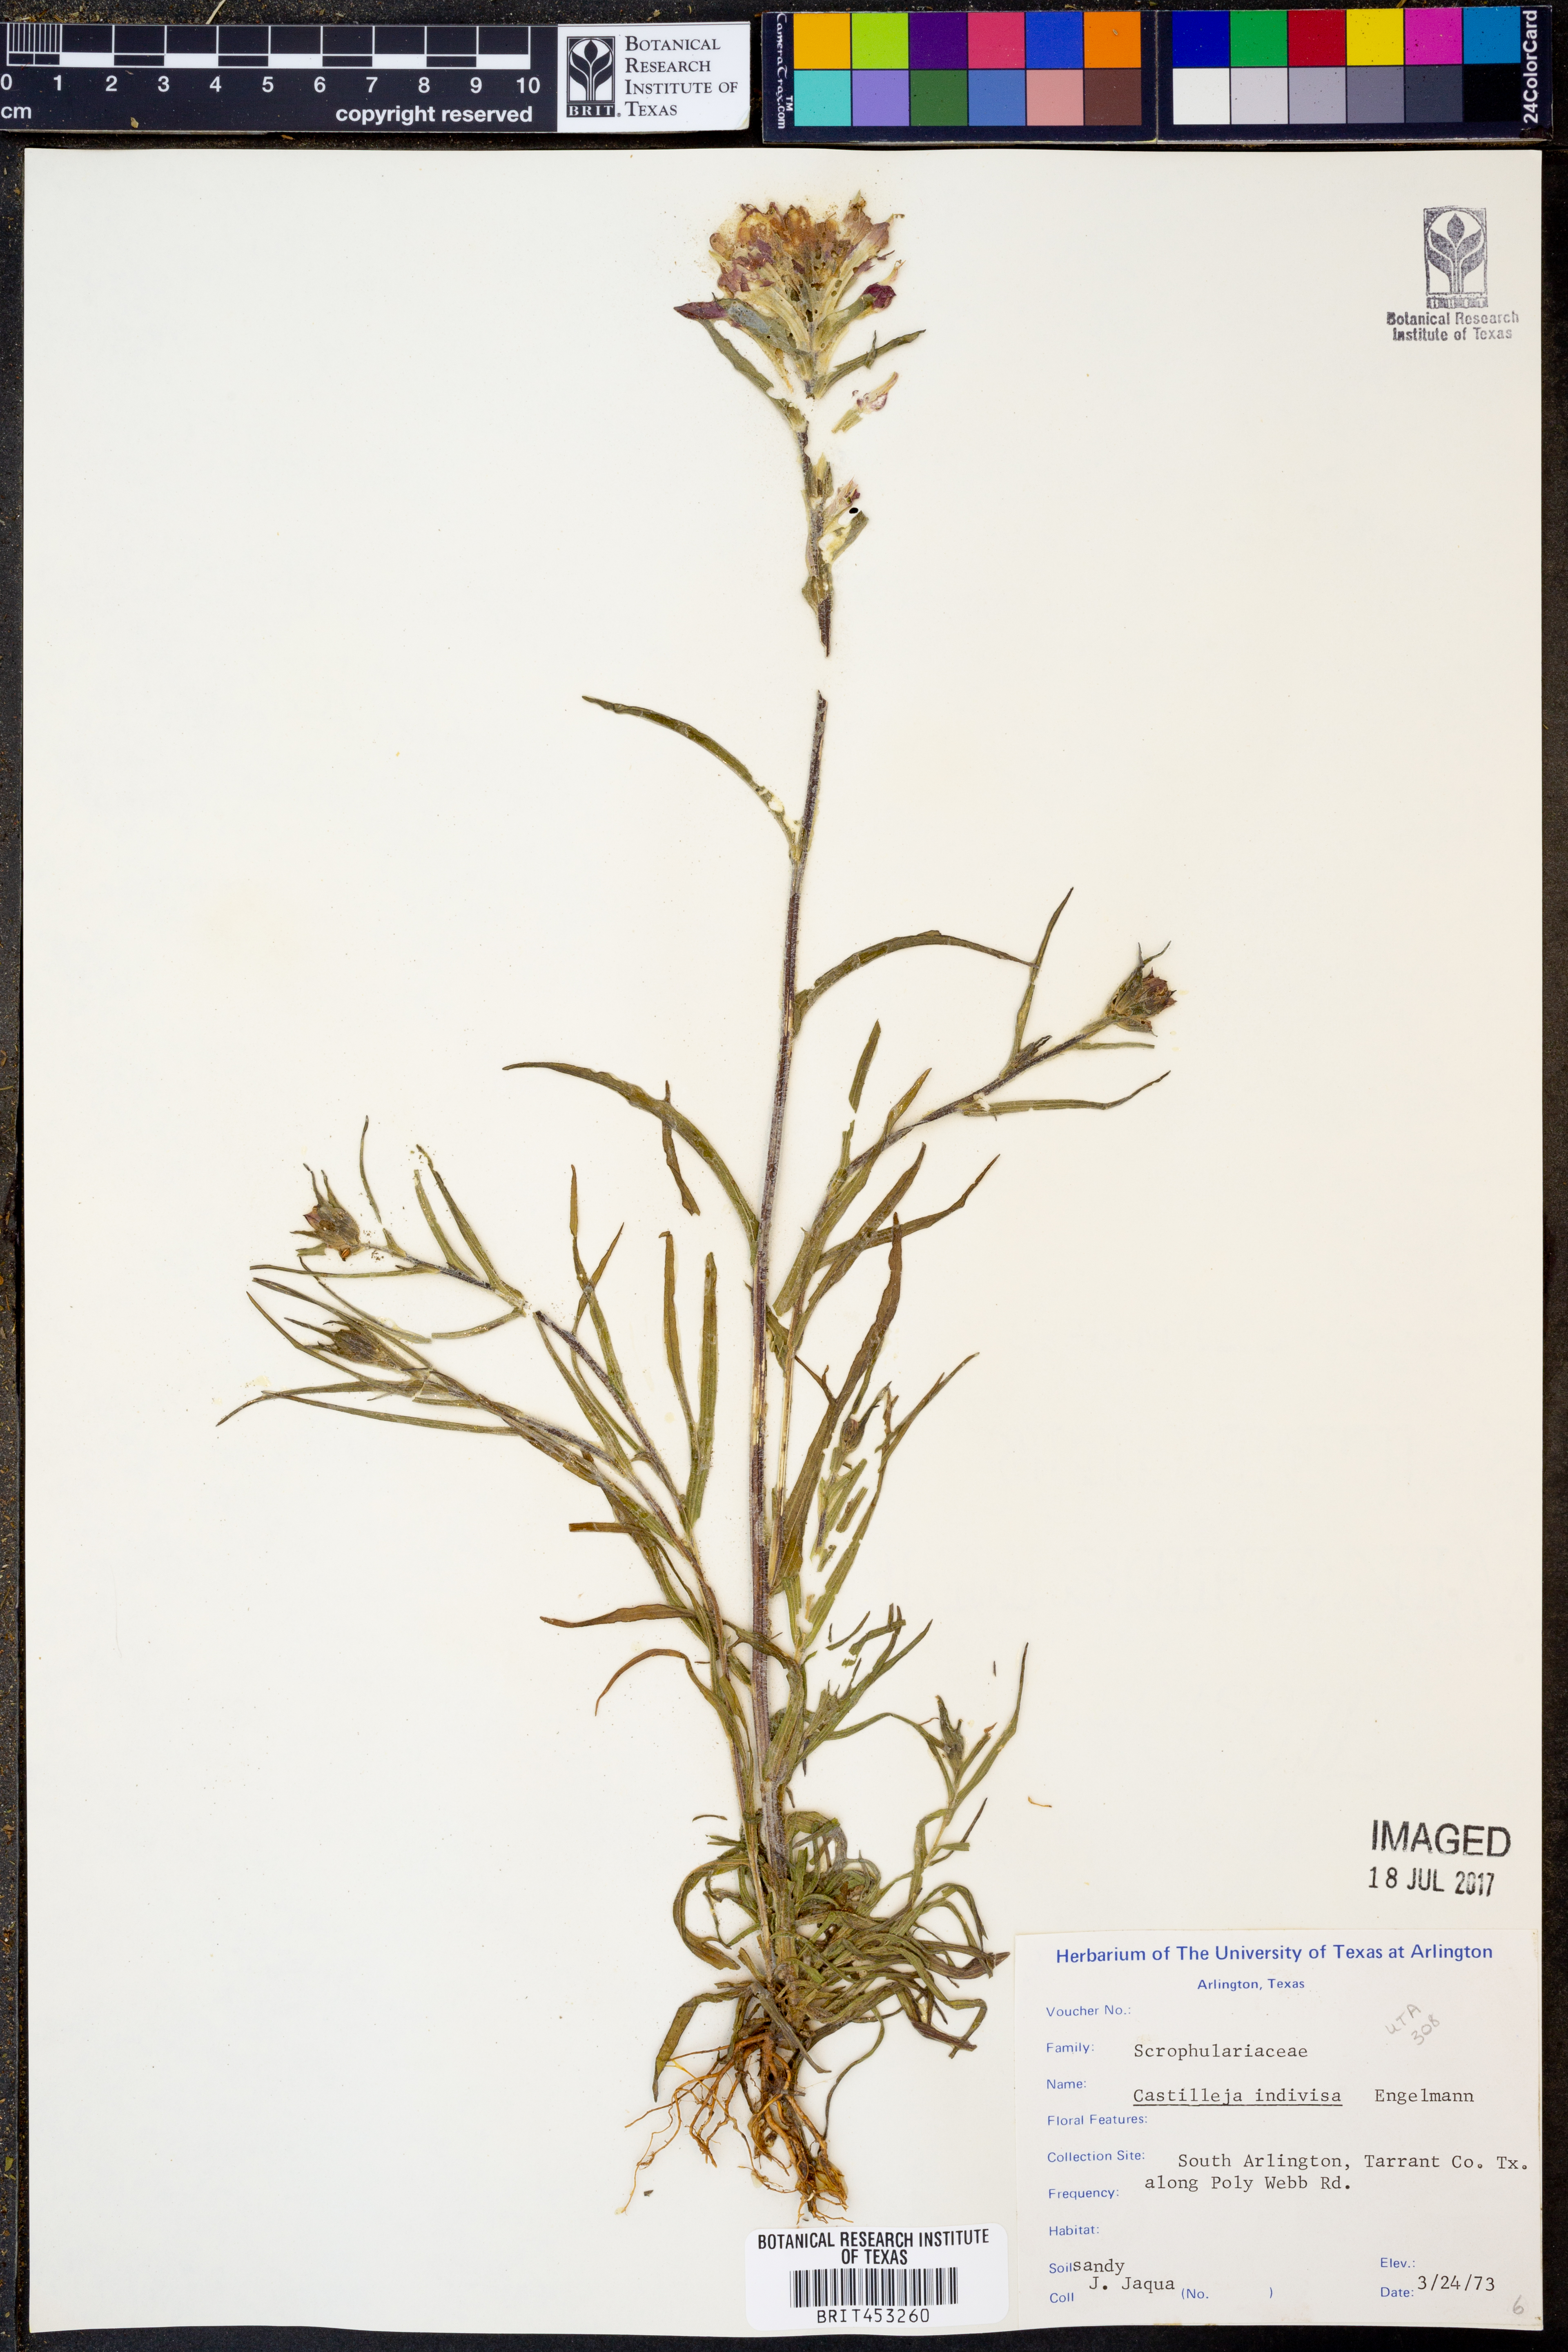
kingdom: Plantae
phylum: Tracheophyta
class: Magnoliopsida
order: Lamiales
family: Orobanchaceae
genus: Castilleja
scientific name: Castilleja indivisa
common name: Texas paintbrush
